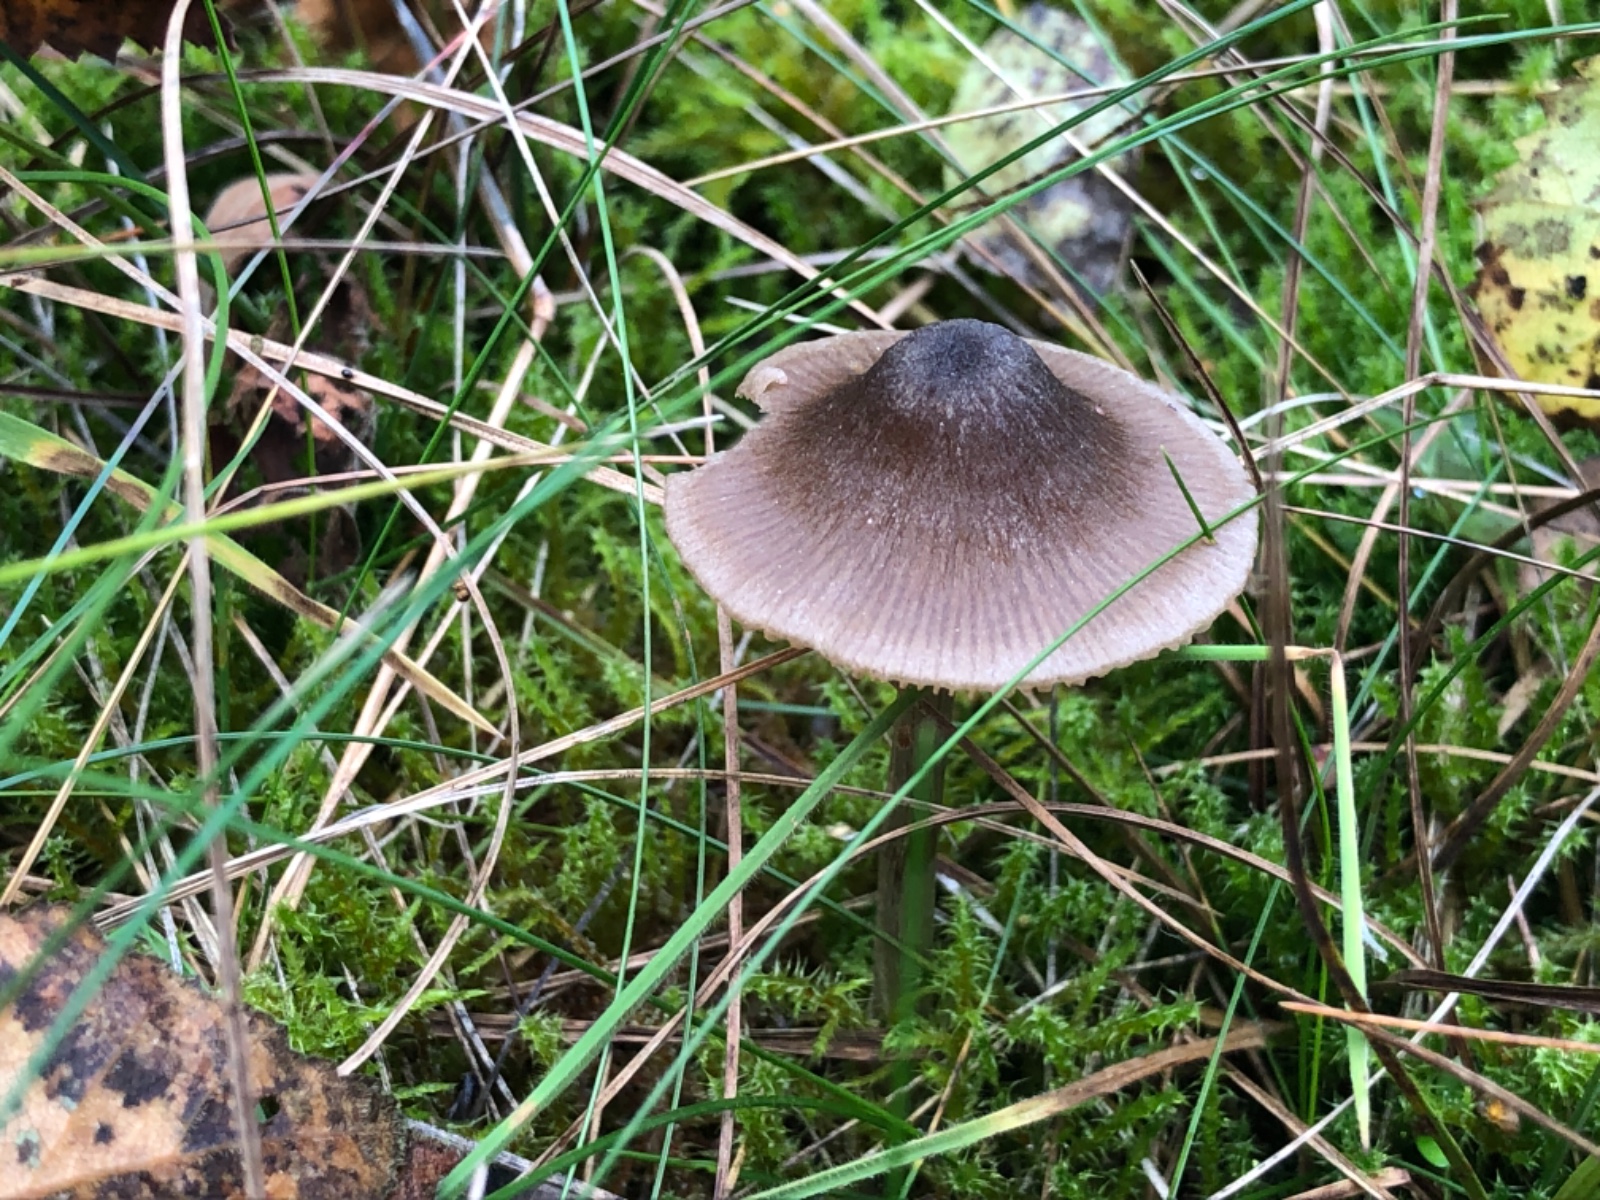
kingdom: Fungi
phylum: Basidiomycota
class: Agaricomycetes
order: Agaricales
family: Entolomataceae
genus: Entoloma
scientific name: Entoloma conferendum
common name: stjernesporet rødblad
